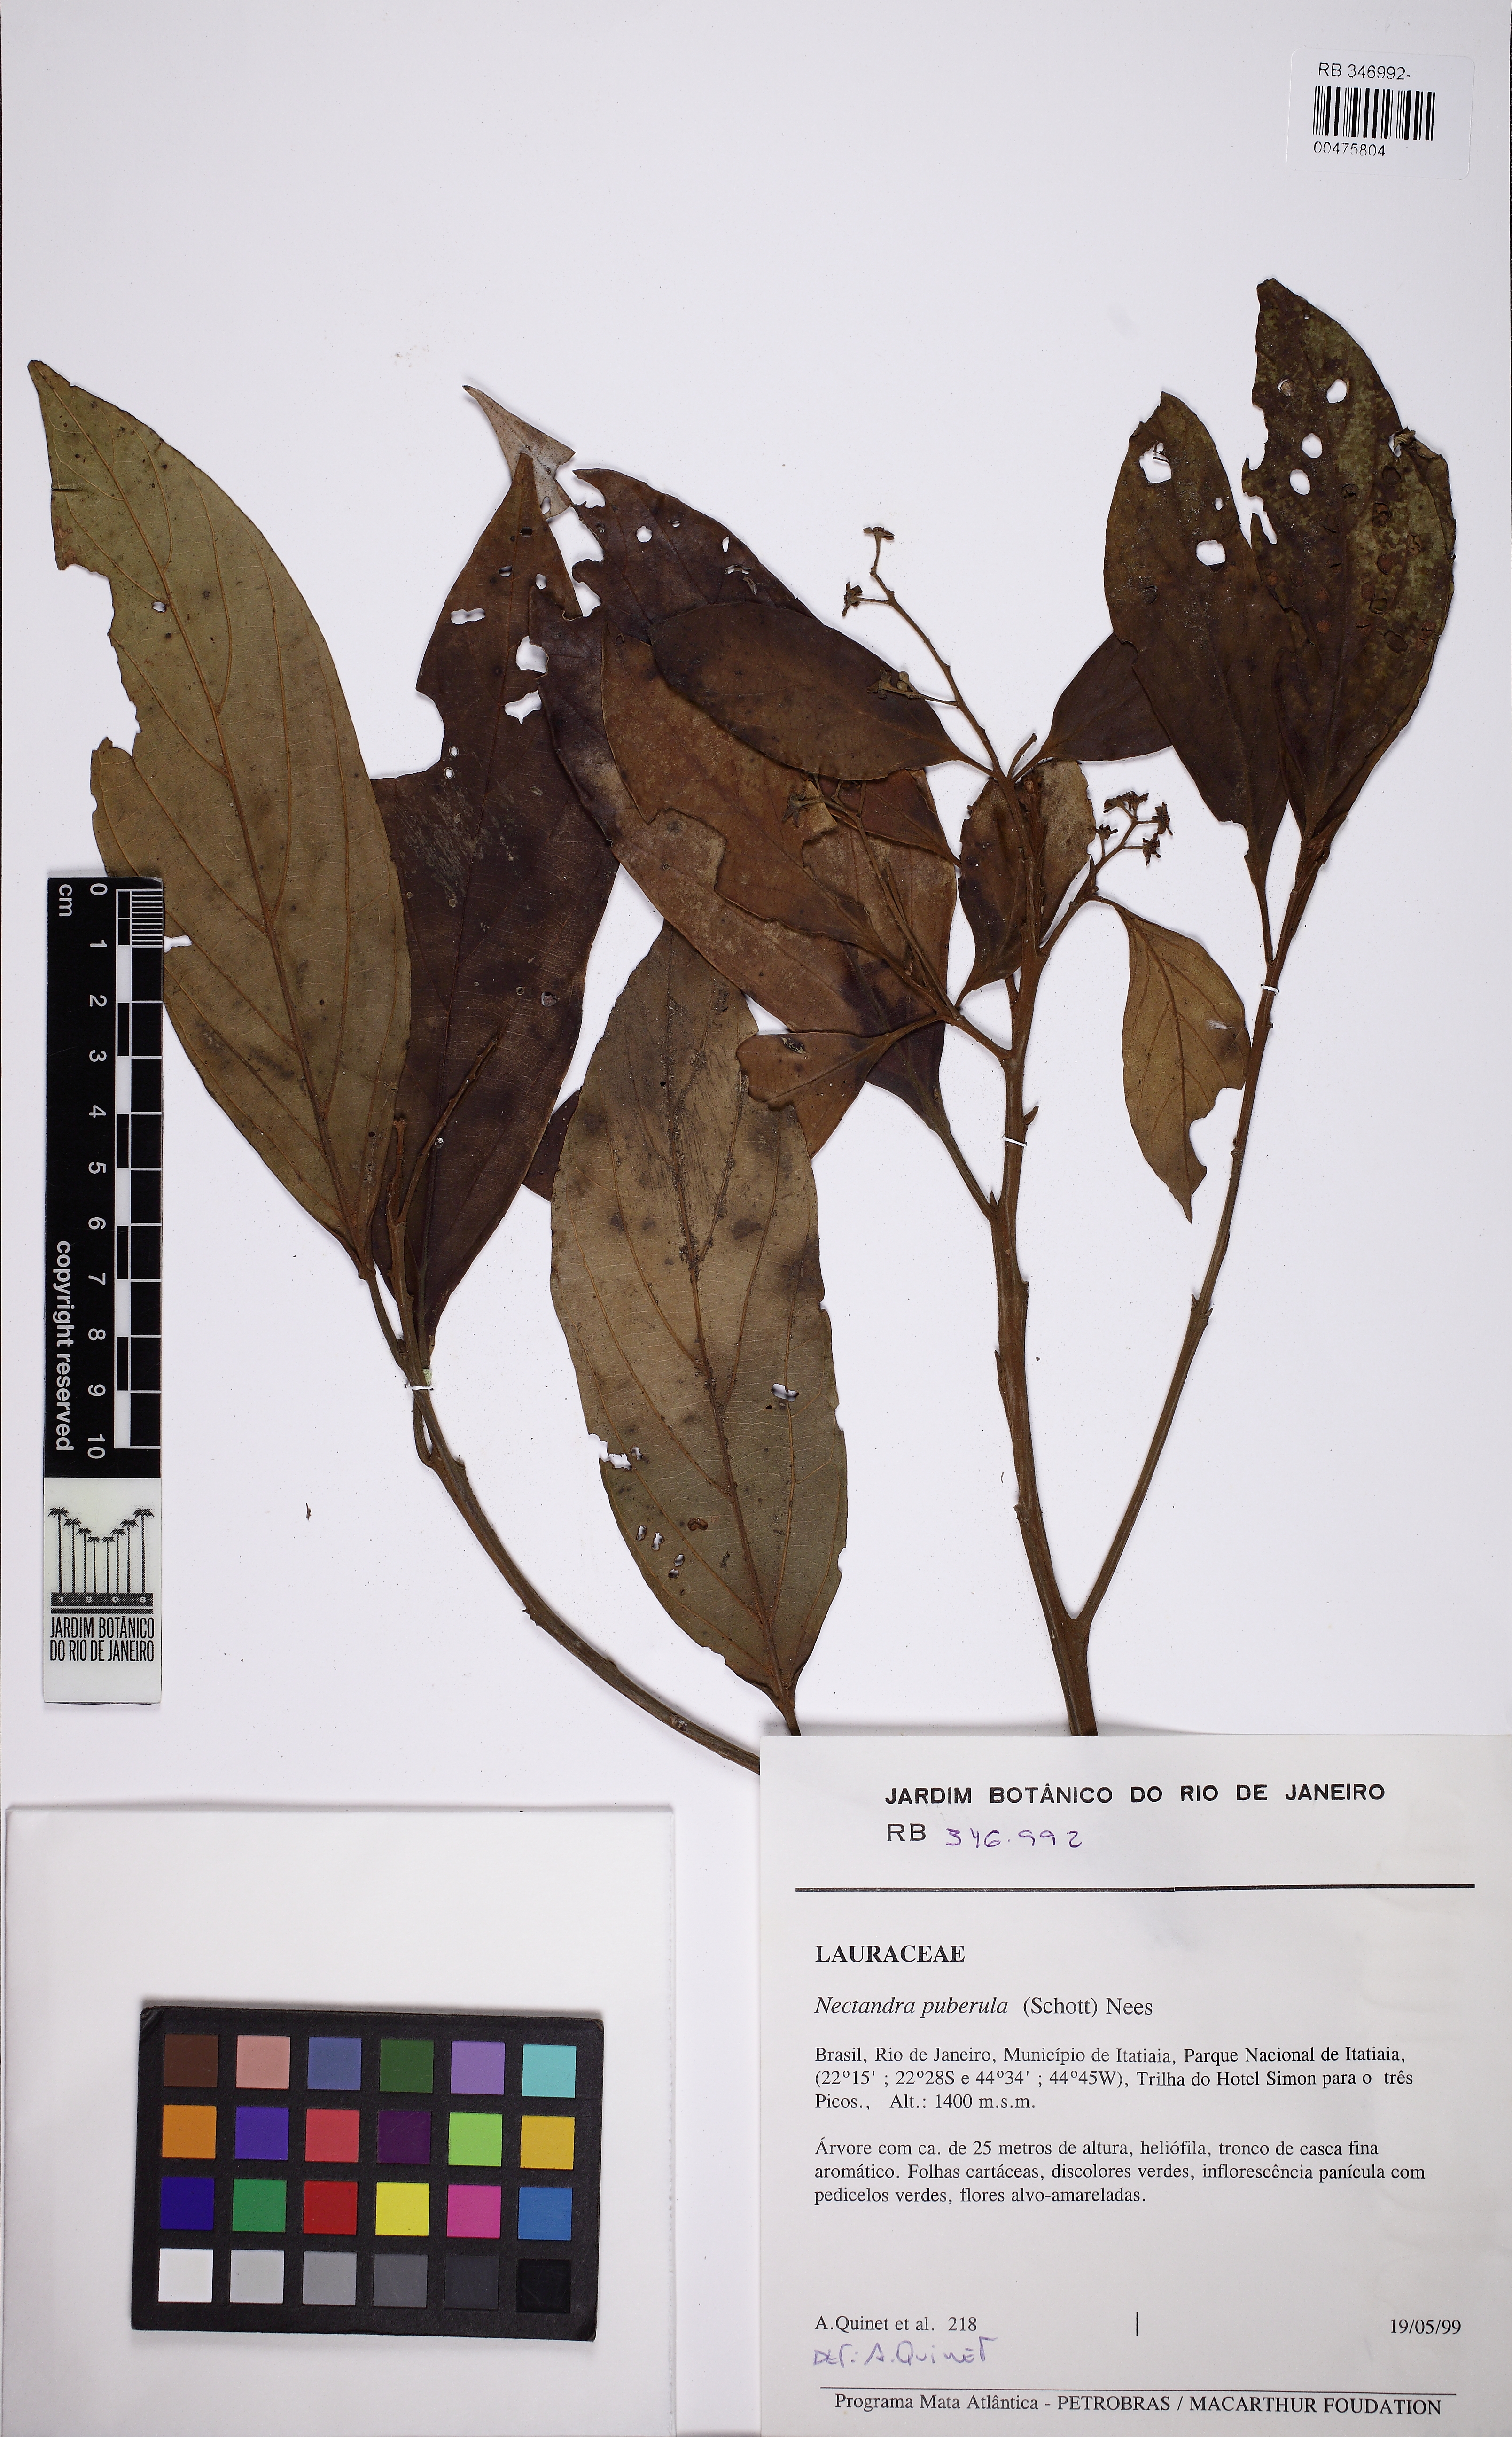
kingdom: Plantae
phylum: Tracheophyta
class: Magnoliopsida
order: Laurales
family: Lauraceae
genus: Nectandra
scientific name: Nectandra puberula
